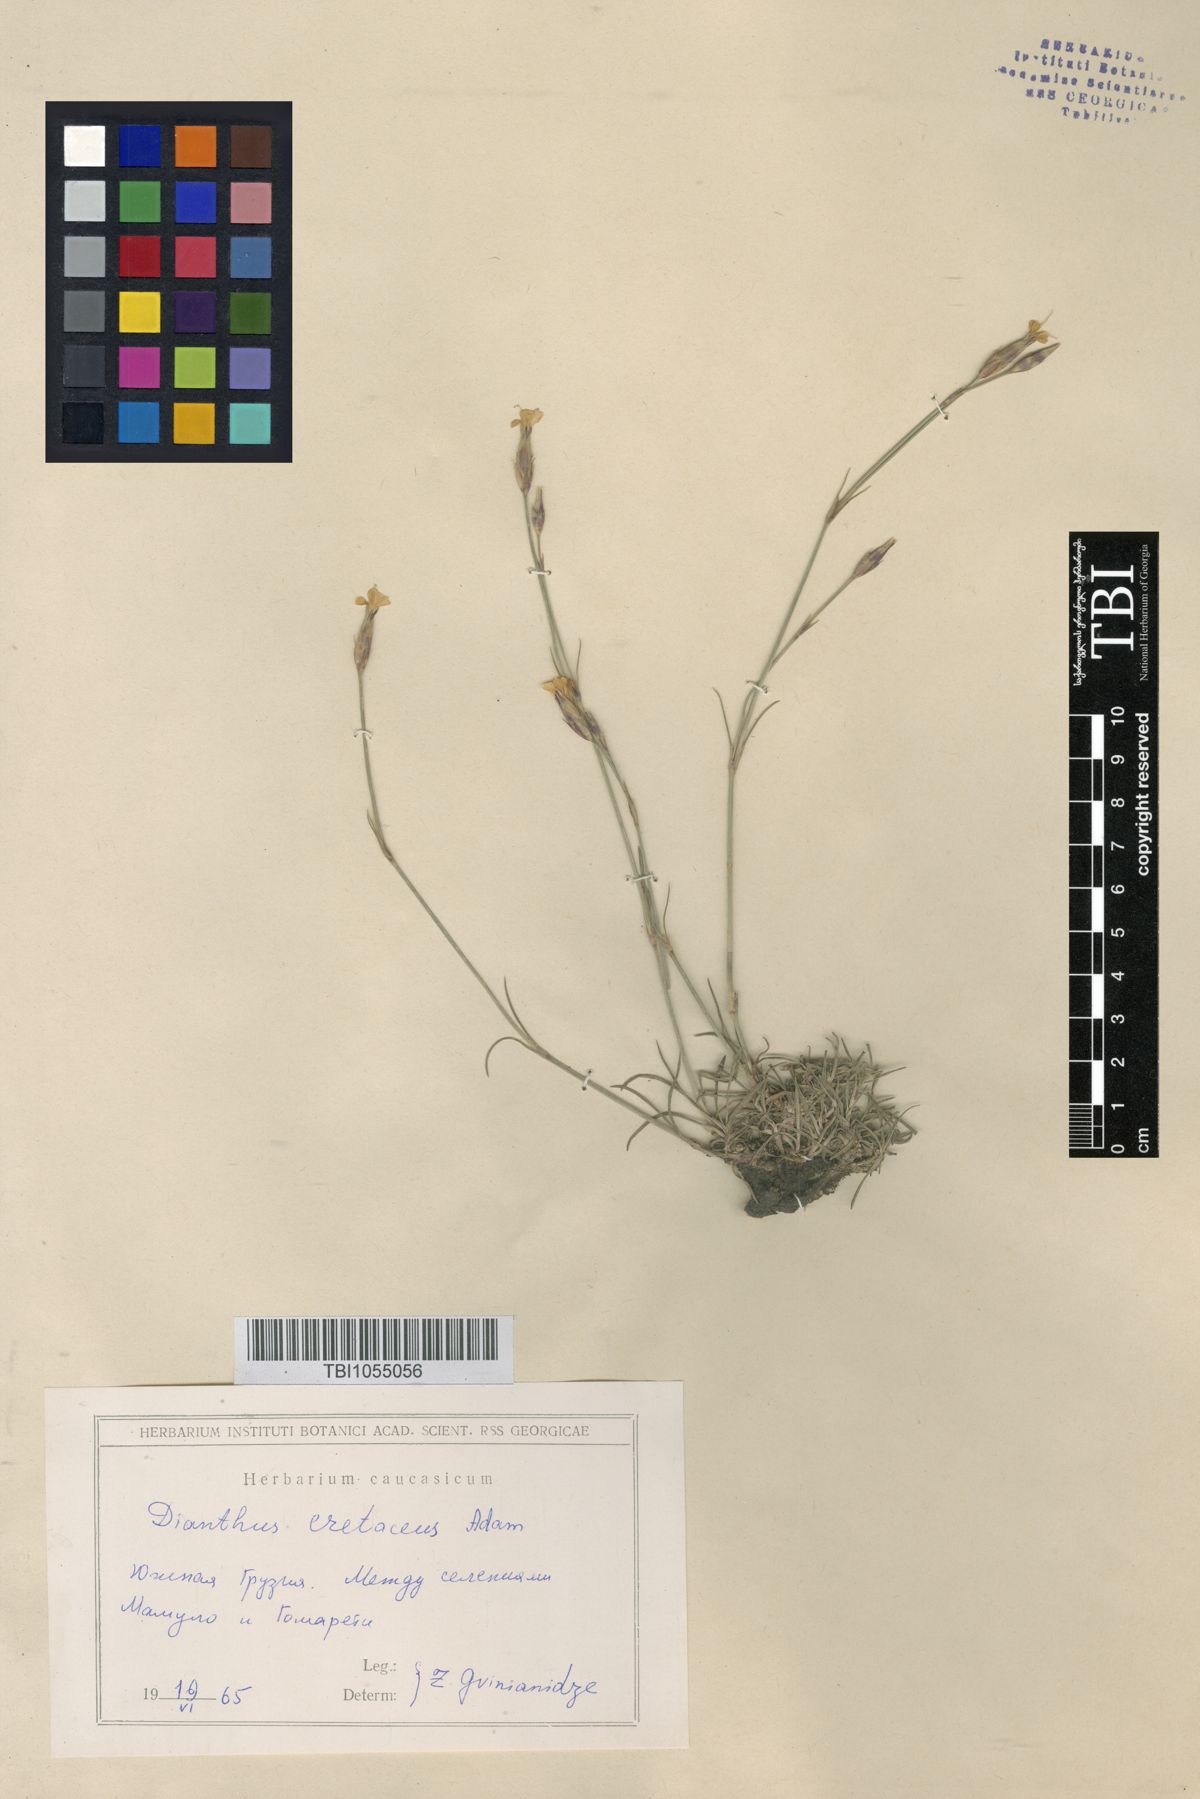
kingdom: Plantae
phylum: Tracheophyta
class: Magnoliopsida
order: Caryophyllales
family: Caryophyllaceae
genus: Dianthus
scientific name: Dianthus cretaceus
